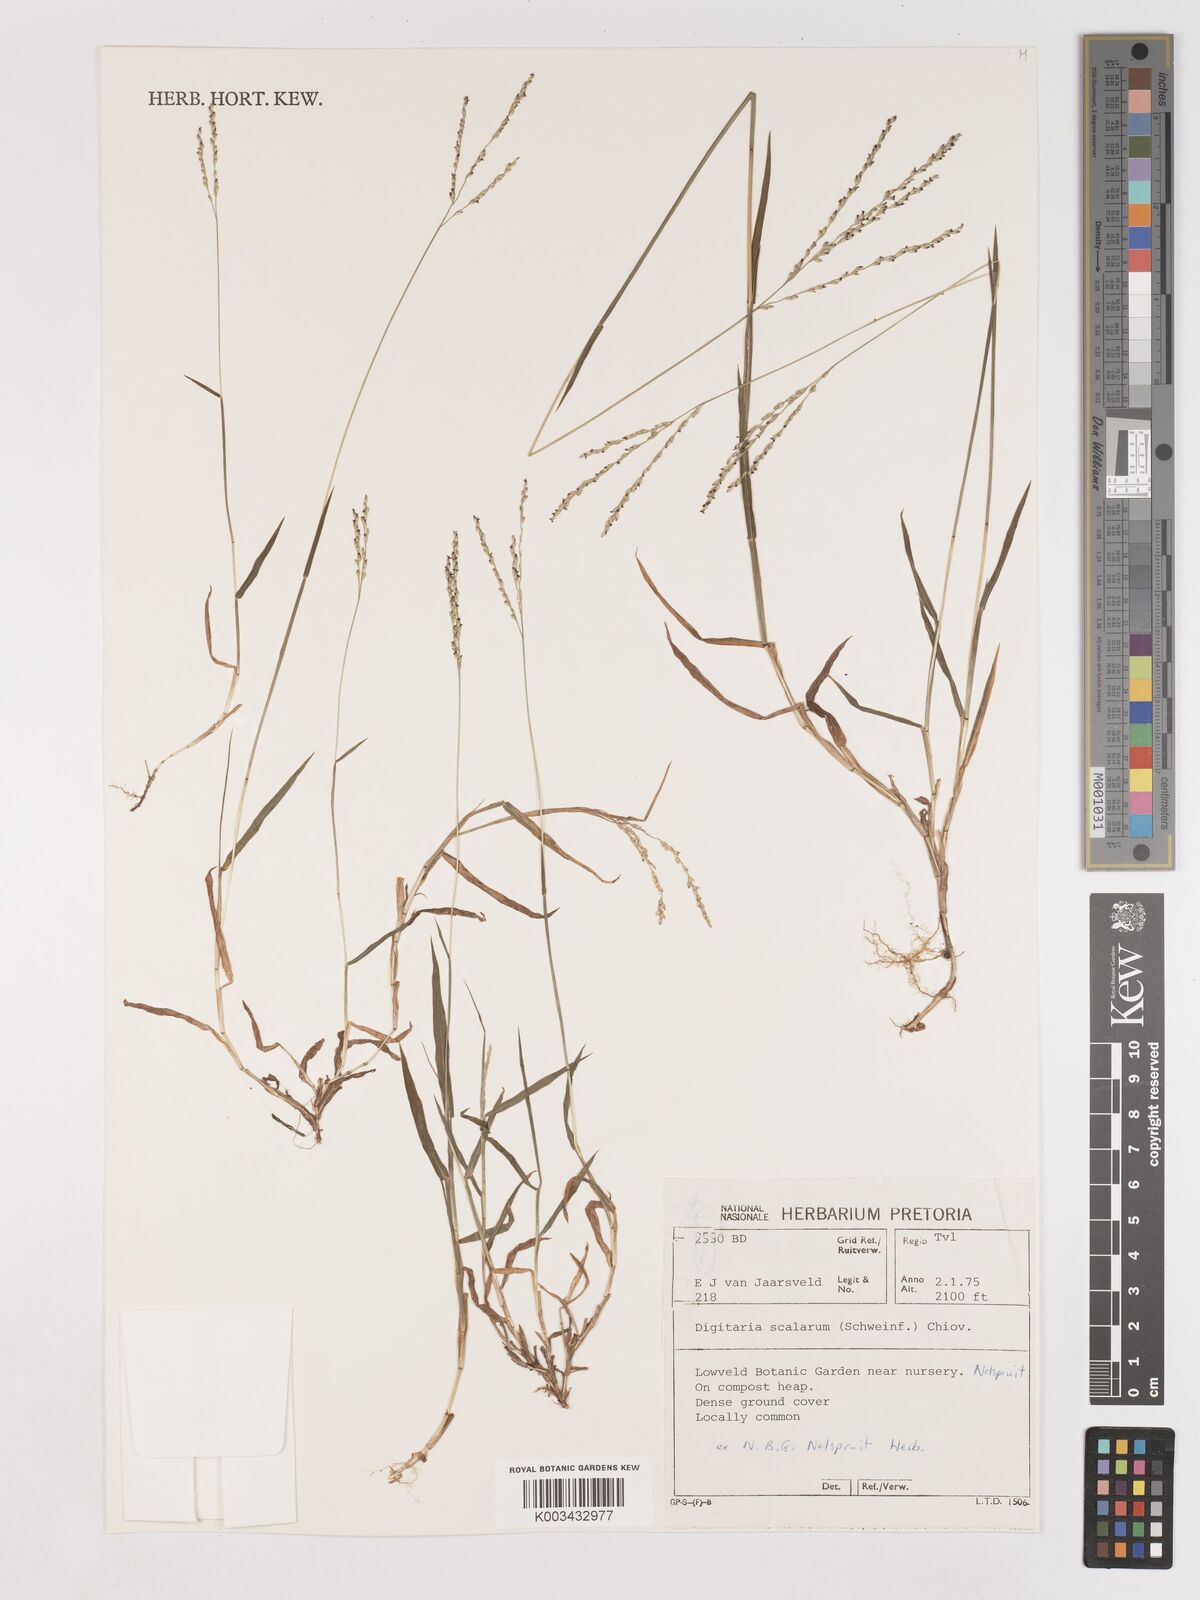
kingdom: Plantae
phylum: Tracheophyta
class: Liliopsida
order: Poales
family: Poaceae
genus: Digitaria
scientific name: Digitaria abyssinica
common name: African couchgrass
